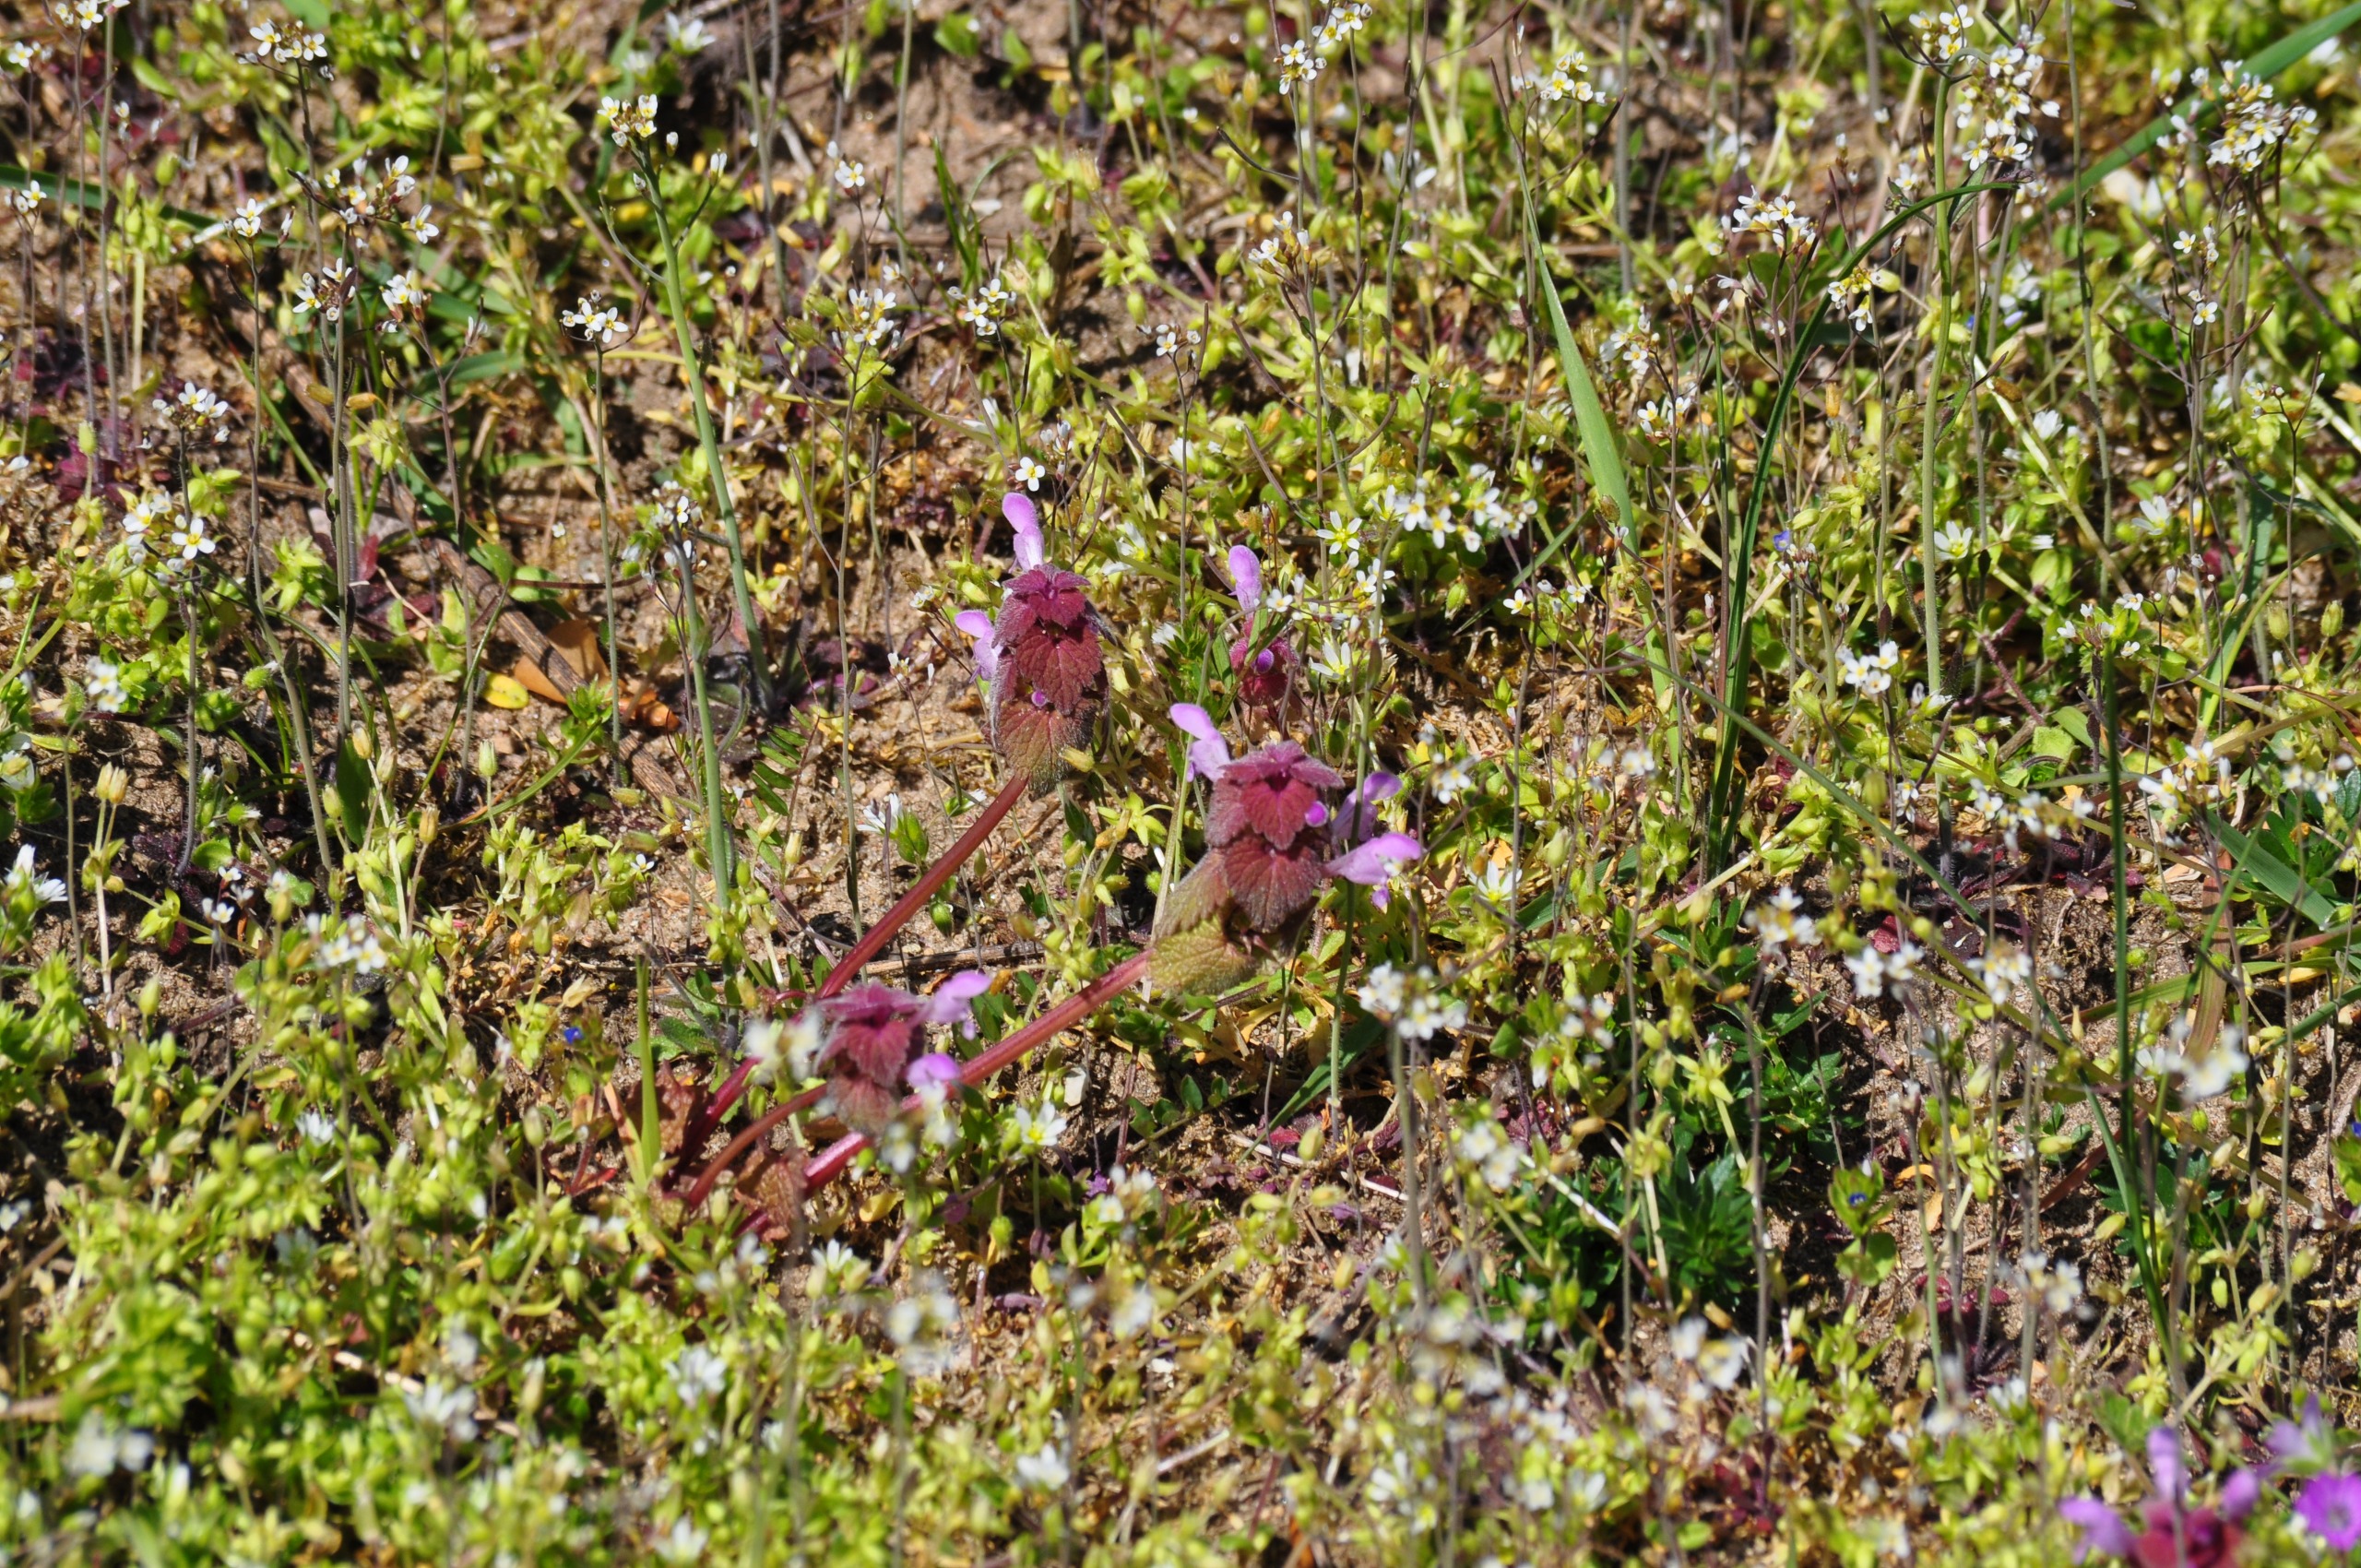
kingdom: Plantae
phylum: Tracheophyta
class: Magnoliopsida
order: Lamiales
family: Lamiaceae
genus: Lamium
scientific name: Lamium purpureum
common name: Rød tvetand
